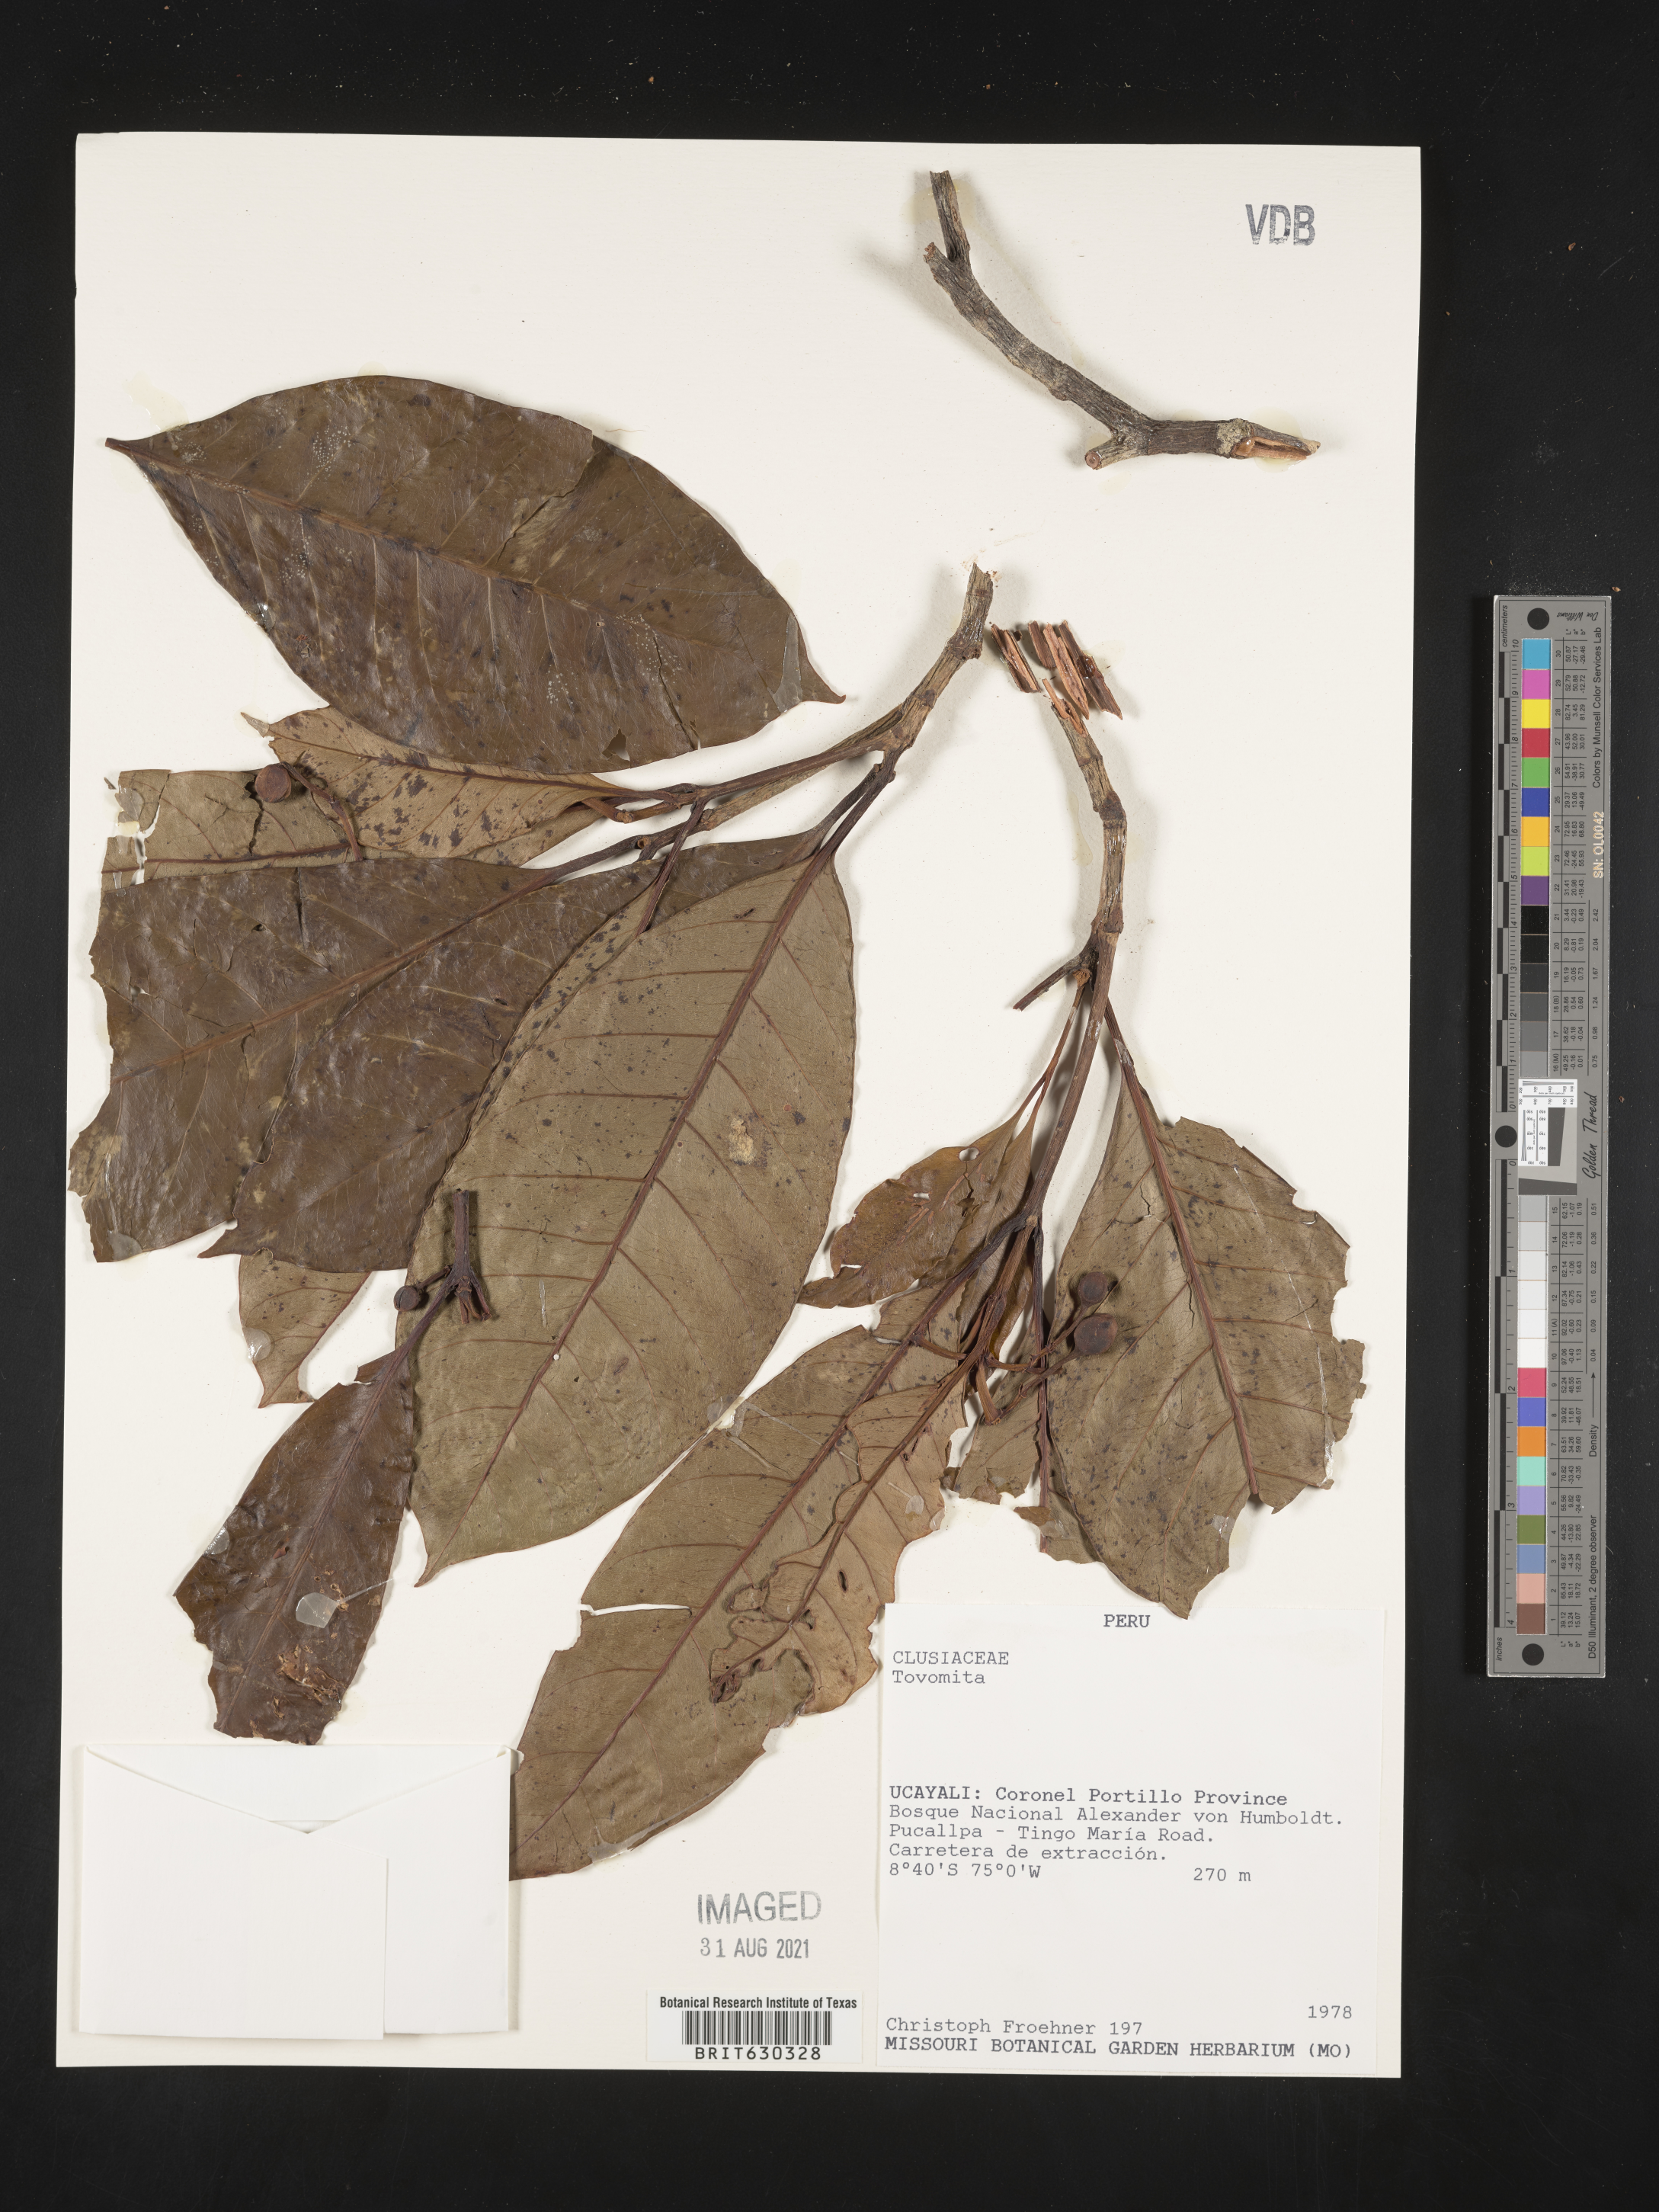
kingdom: Plantae
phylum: Tracheophyta
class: Magnoliopsida
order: Malpighiales
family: Clusiaceae
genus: Tovomita
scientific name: Tovomita
